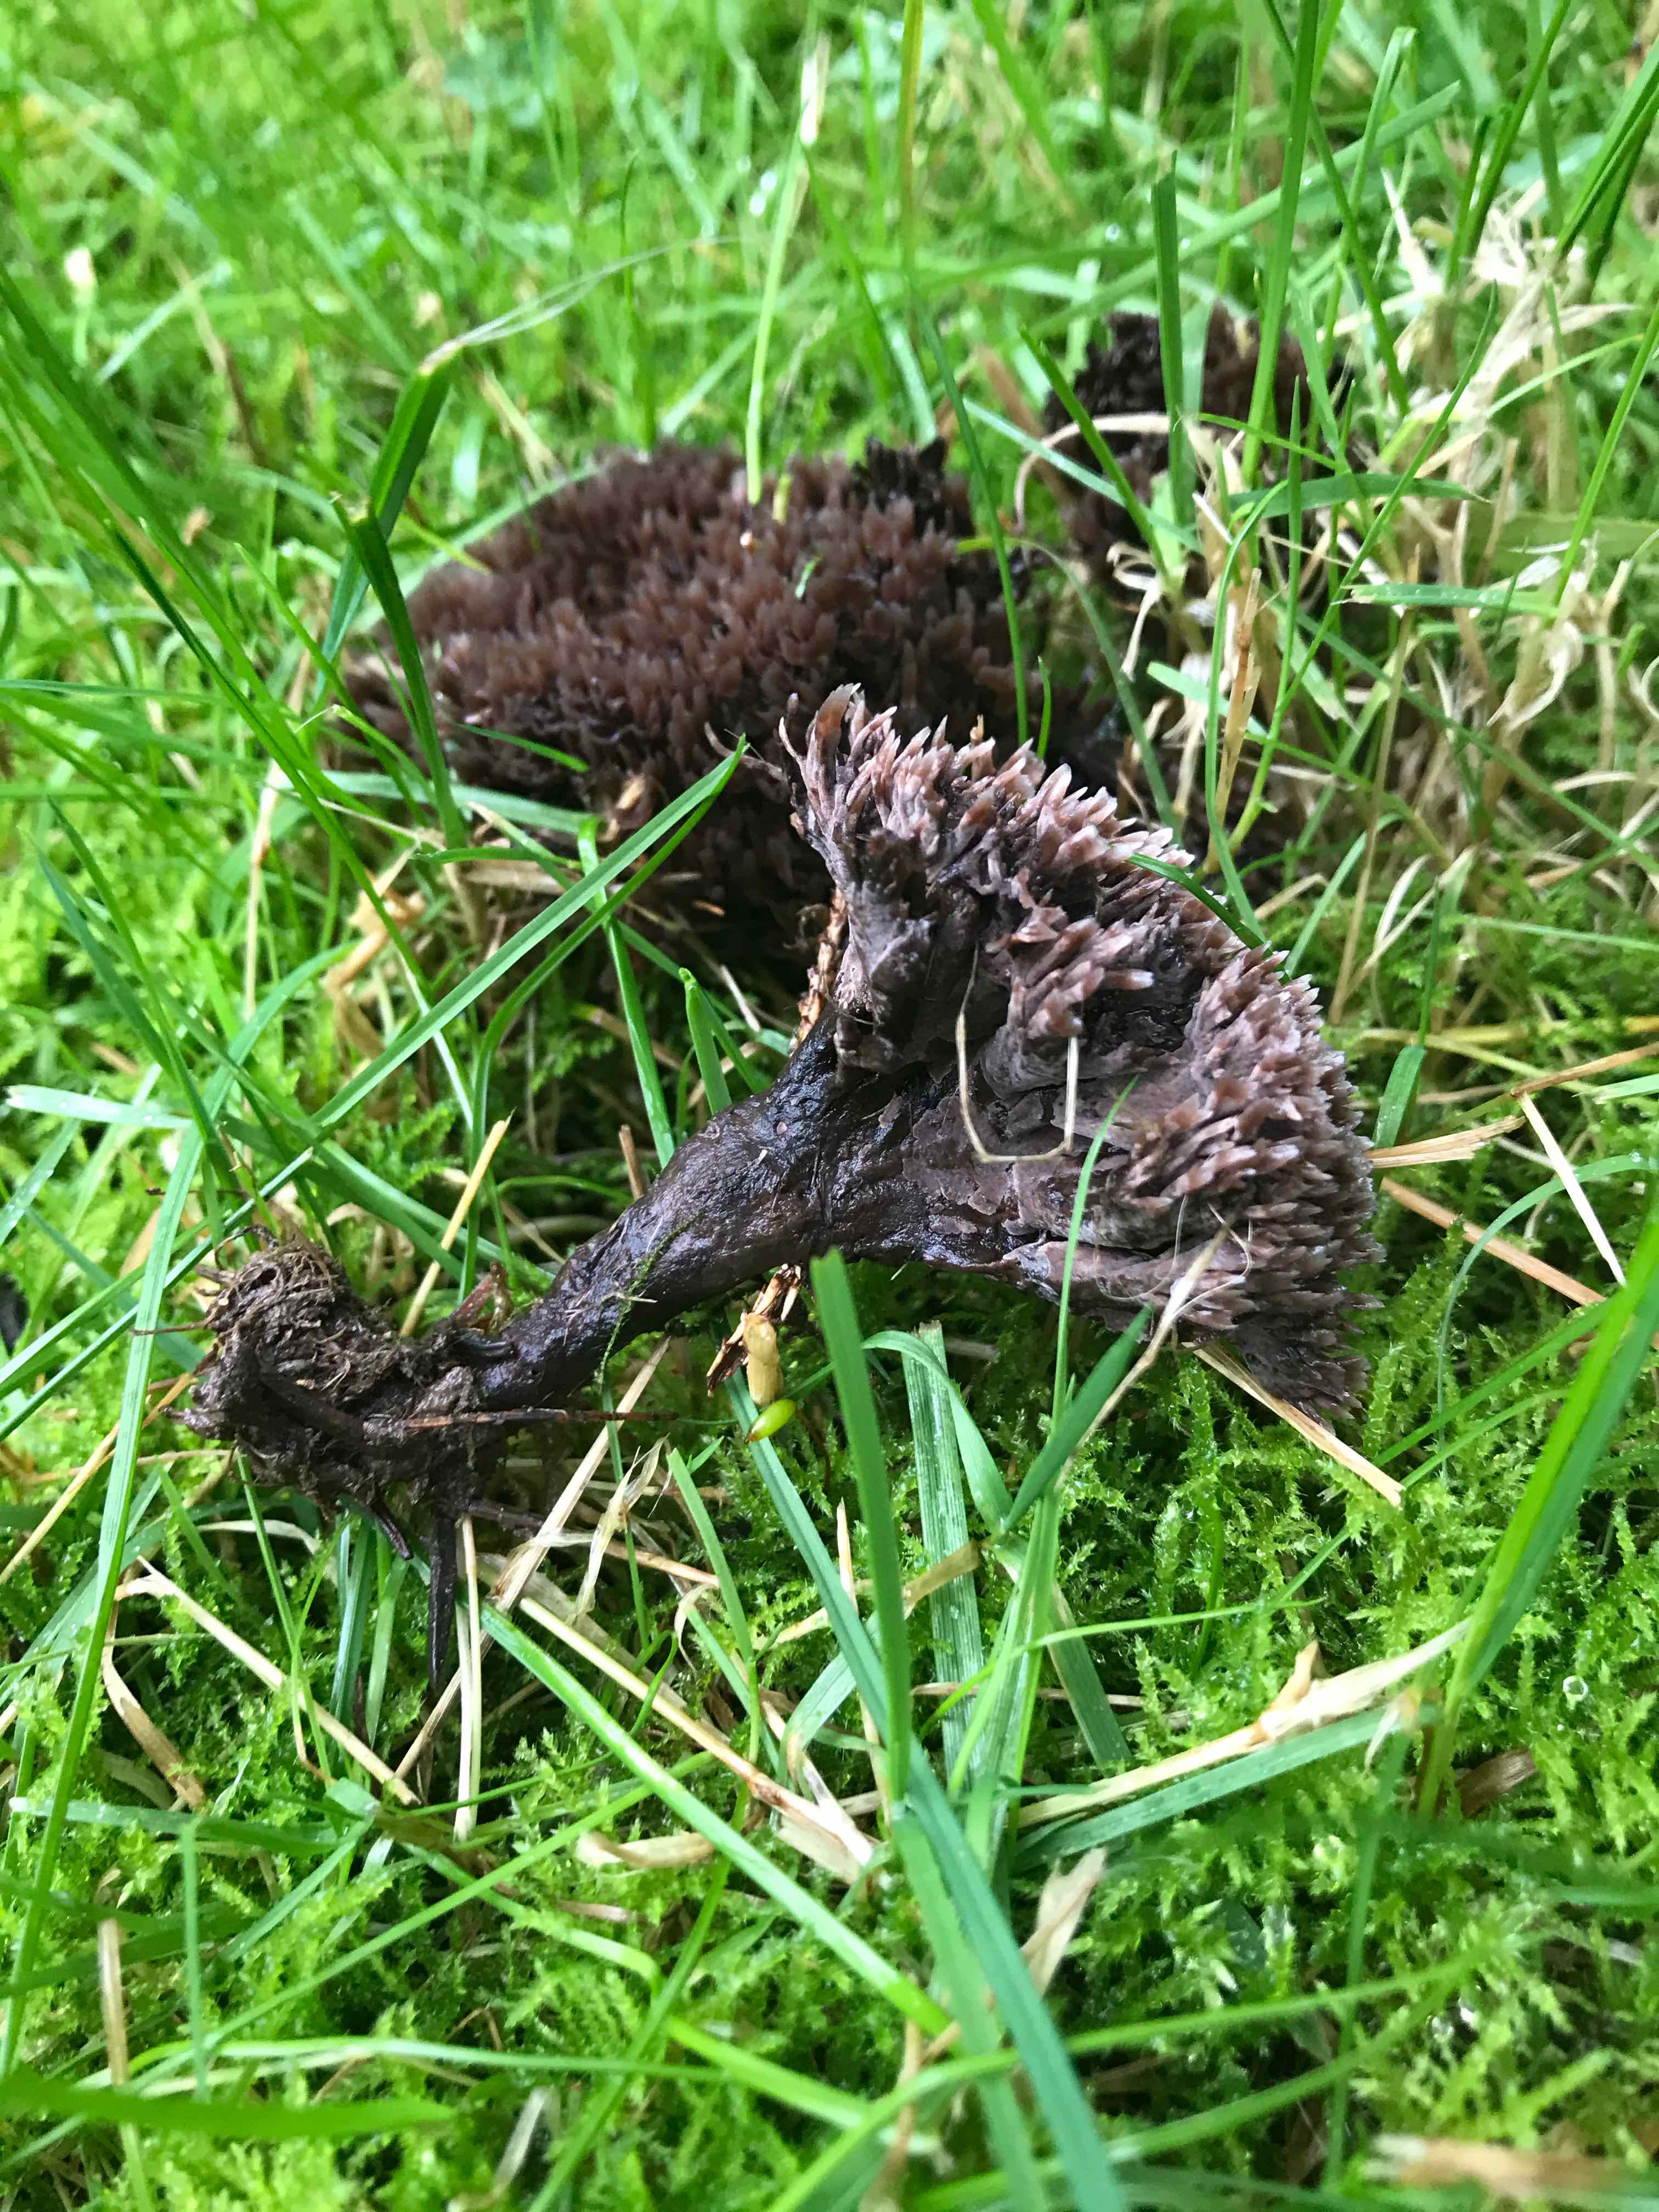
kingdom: Fungi
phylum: Basidiomycota
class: Agaricomycetes
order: Thelephorales
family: Thelephoraceae
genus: Thelephora
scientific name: Thelephora terrestris
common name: fliget frynsesvamp
